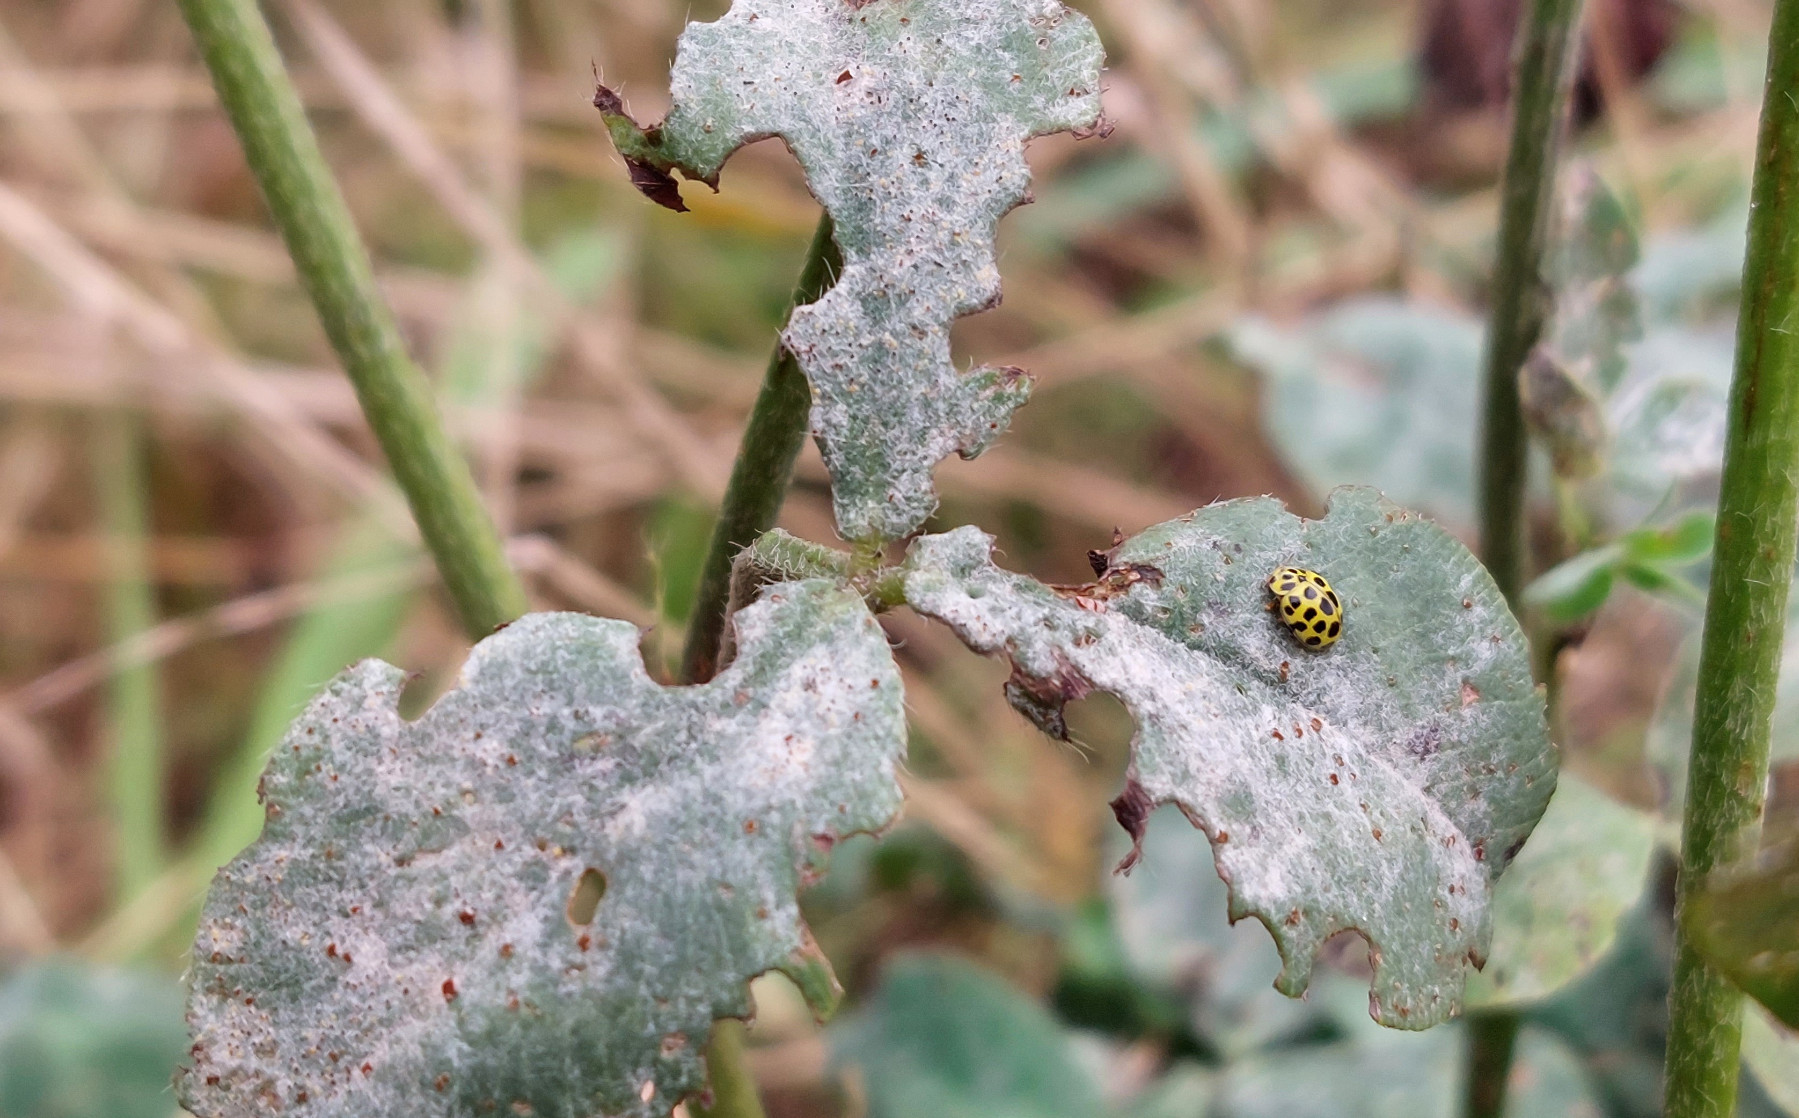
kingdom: Fungi
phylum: Ascomycota
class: Leotiomycetes
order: Helotiales
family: Erysiphaceae
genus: Erysiphe
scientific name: Erysiphe pisi
